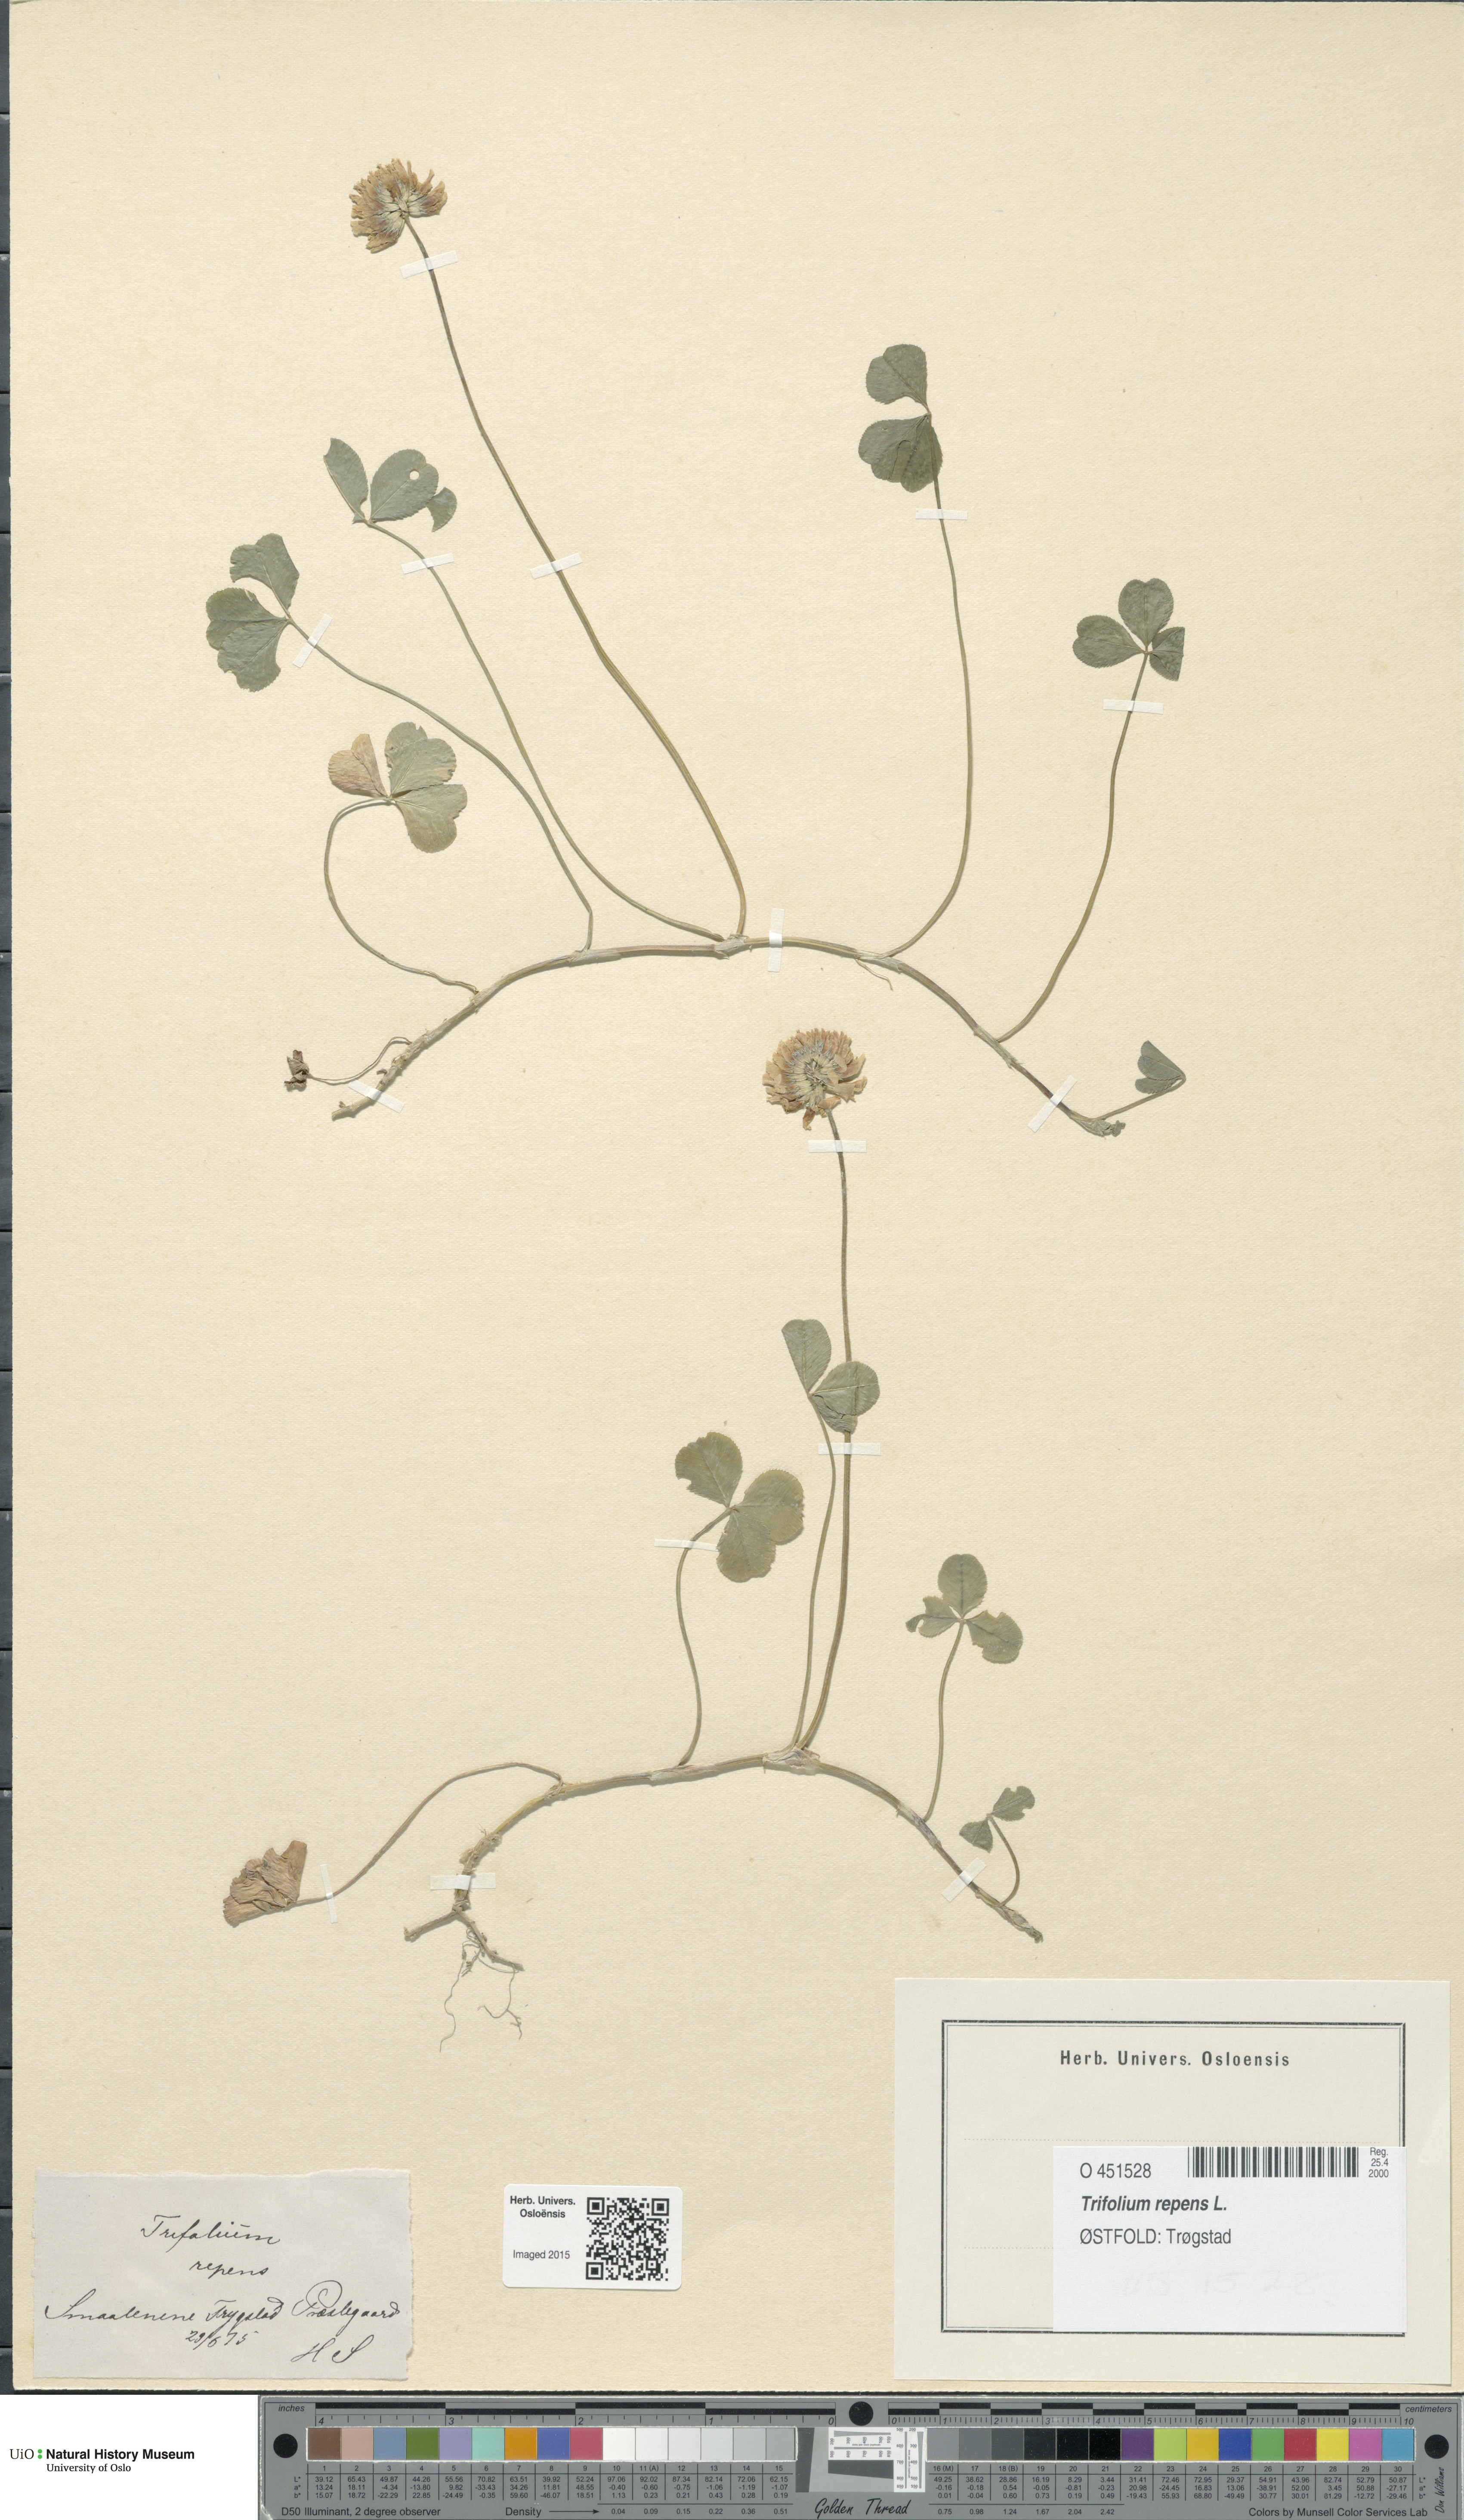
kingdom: Plantae
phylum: Tracheophyta
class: Magnoliopsida
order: Fabales
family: Fabaceae
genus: Trifolium
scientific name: Trifolium repens
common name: White clover
